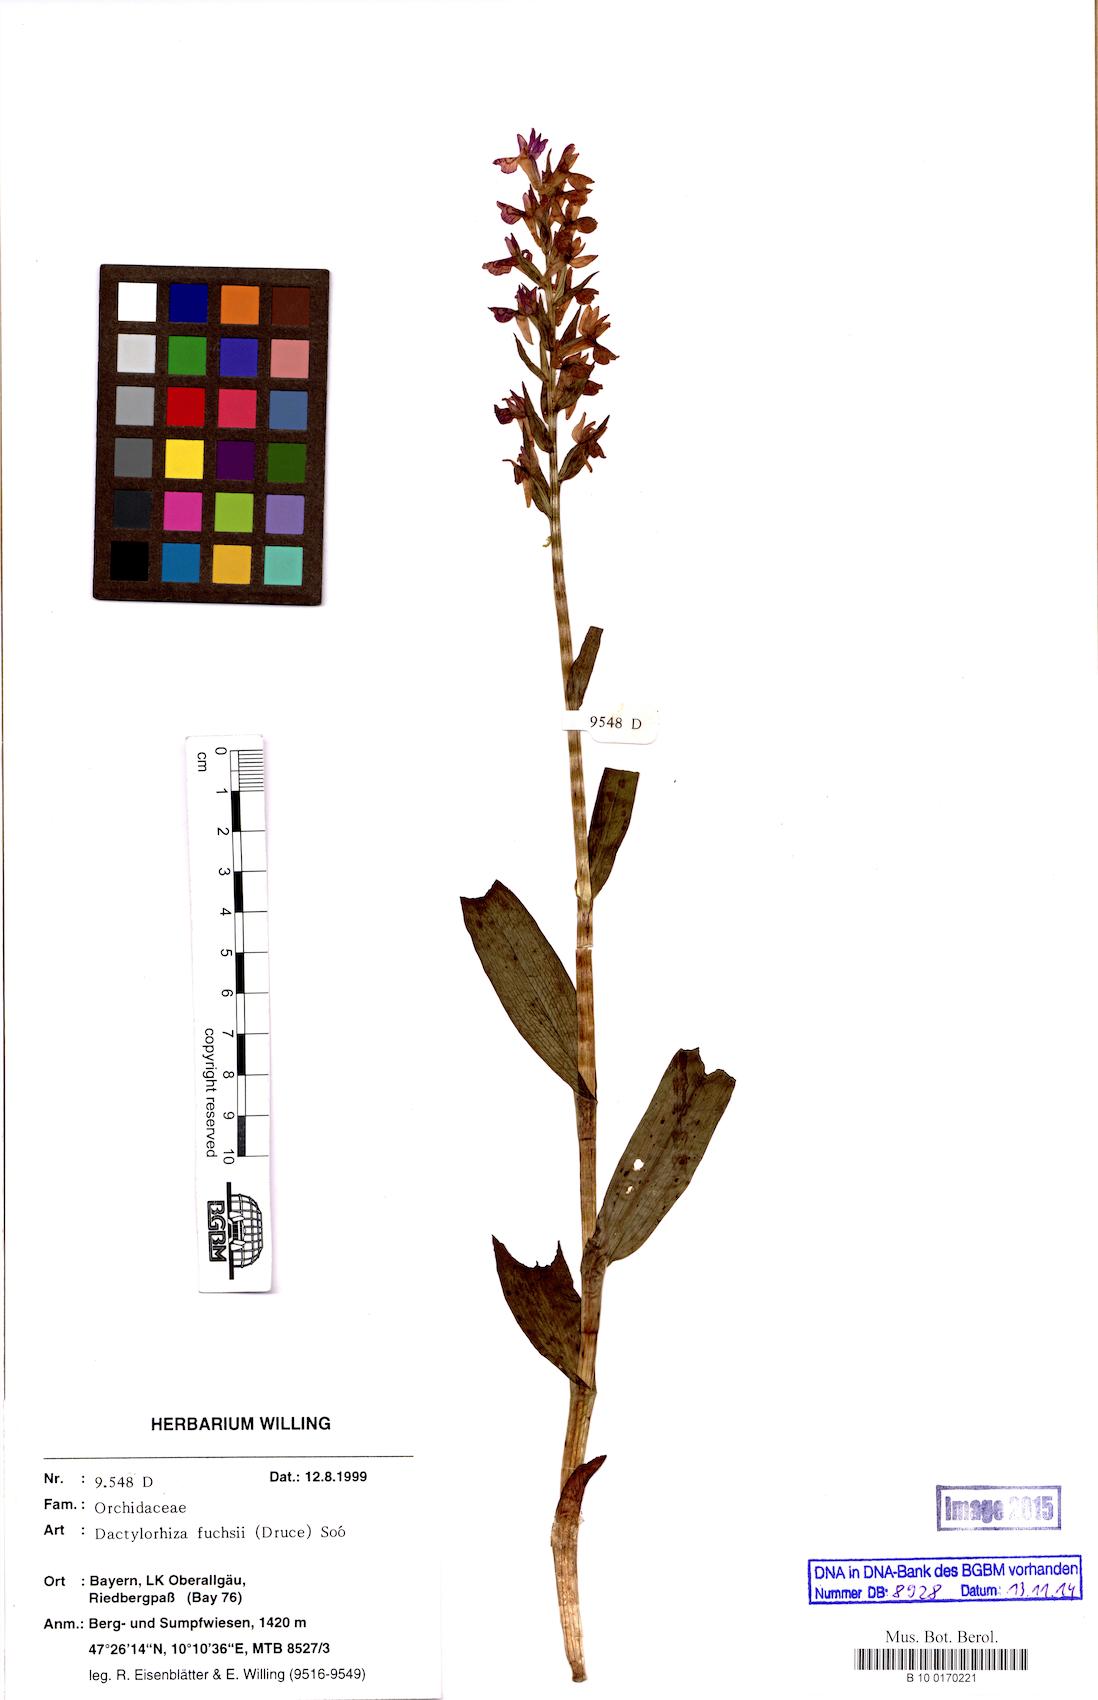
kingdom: Plantae
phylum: Tracheophyta
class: Liliopsida
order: Asparagales
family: Orchidaceae
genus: Dactylorhiza
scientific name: Dactylorhiza maculata
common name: Heath spotted-orchid
